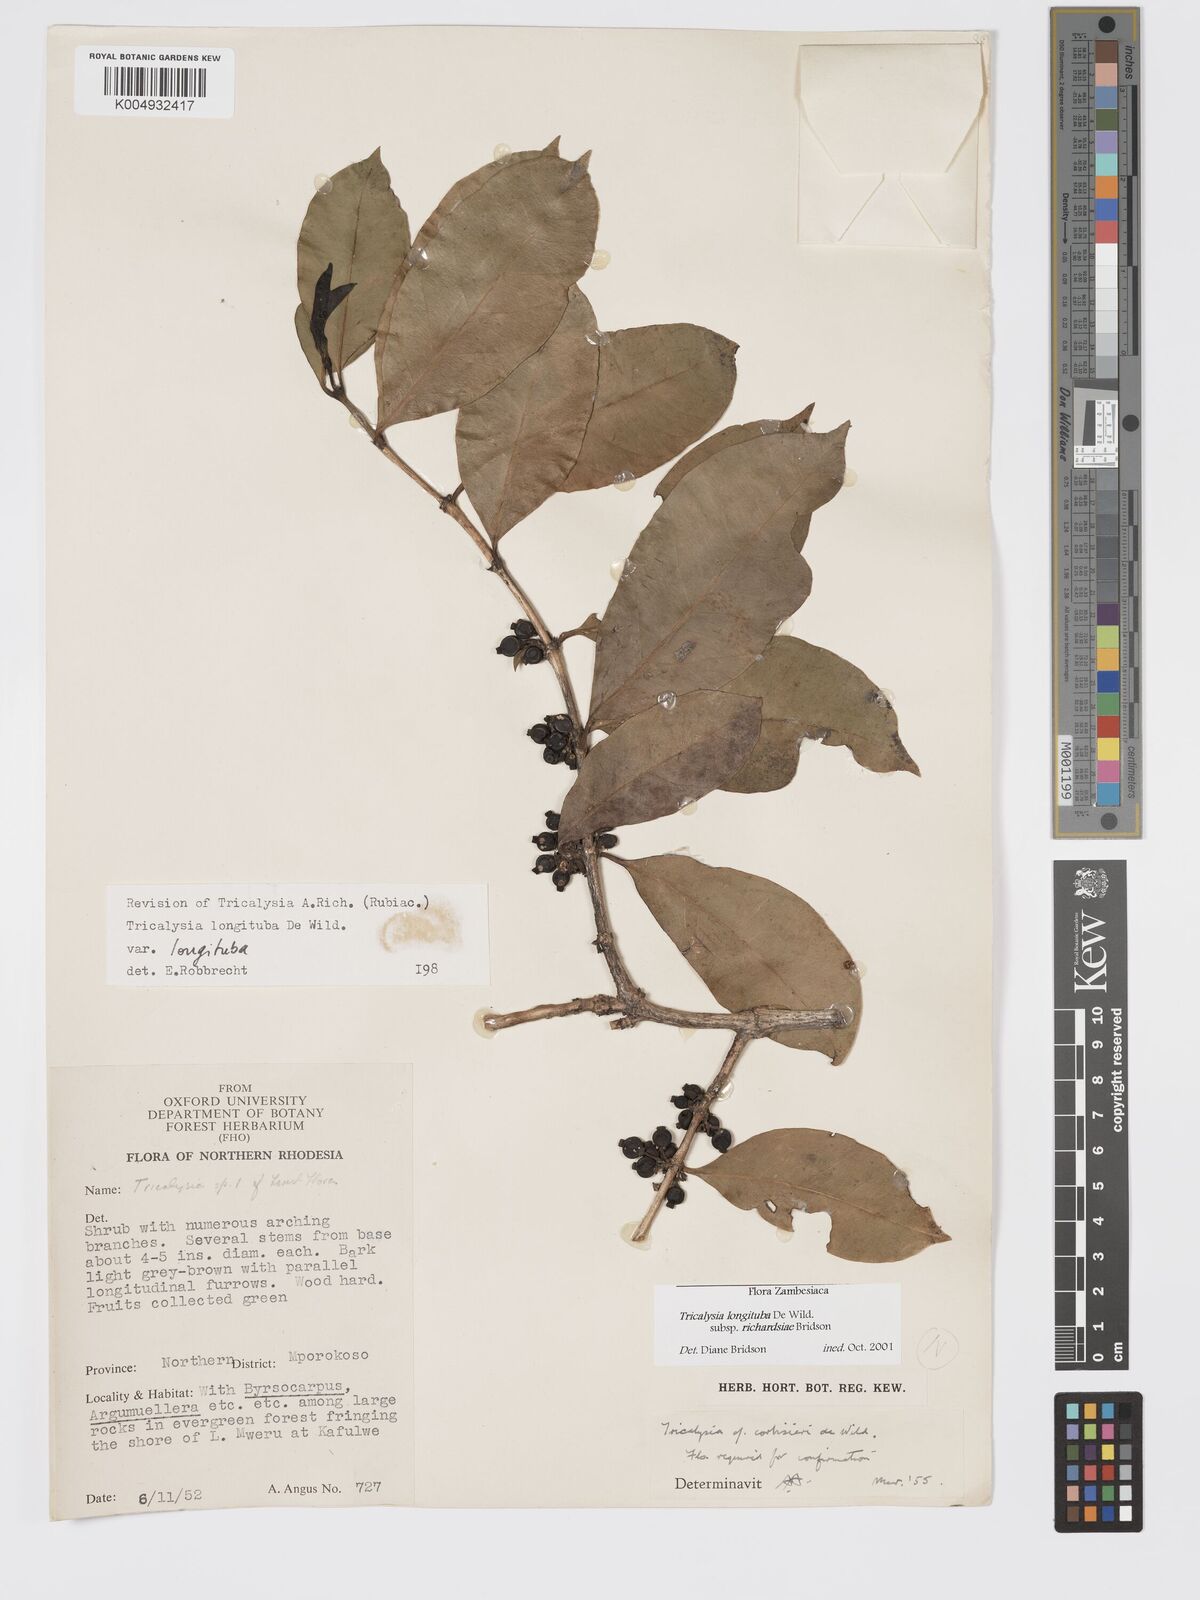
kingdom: Plantae
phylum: Tracheophyta
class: Magnoliopsida
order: Gentianales
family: Rubiaceae
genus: Tricalysia
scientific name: Tricalysia longituba
